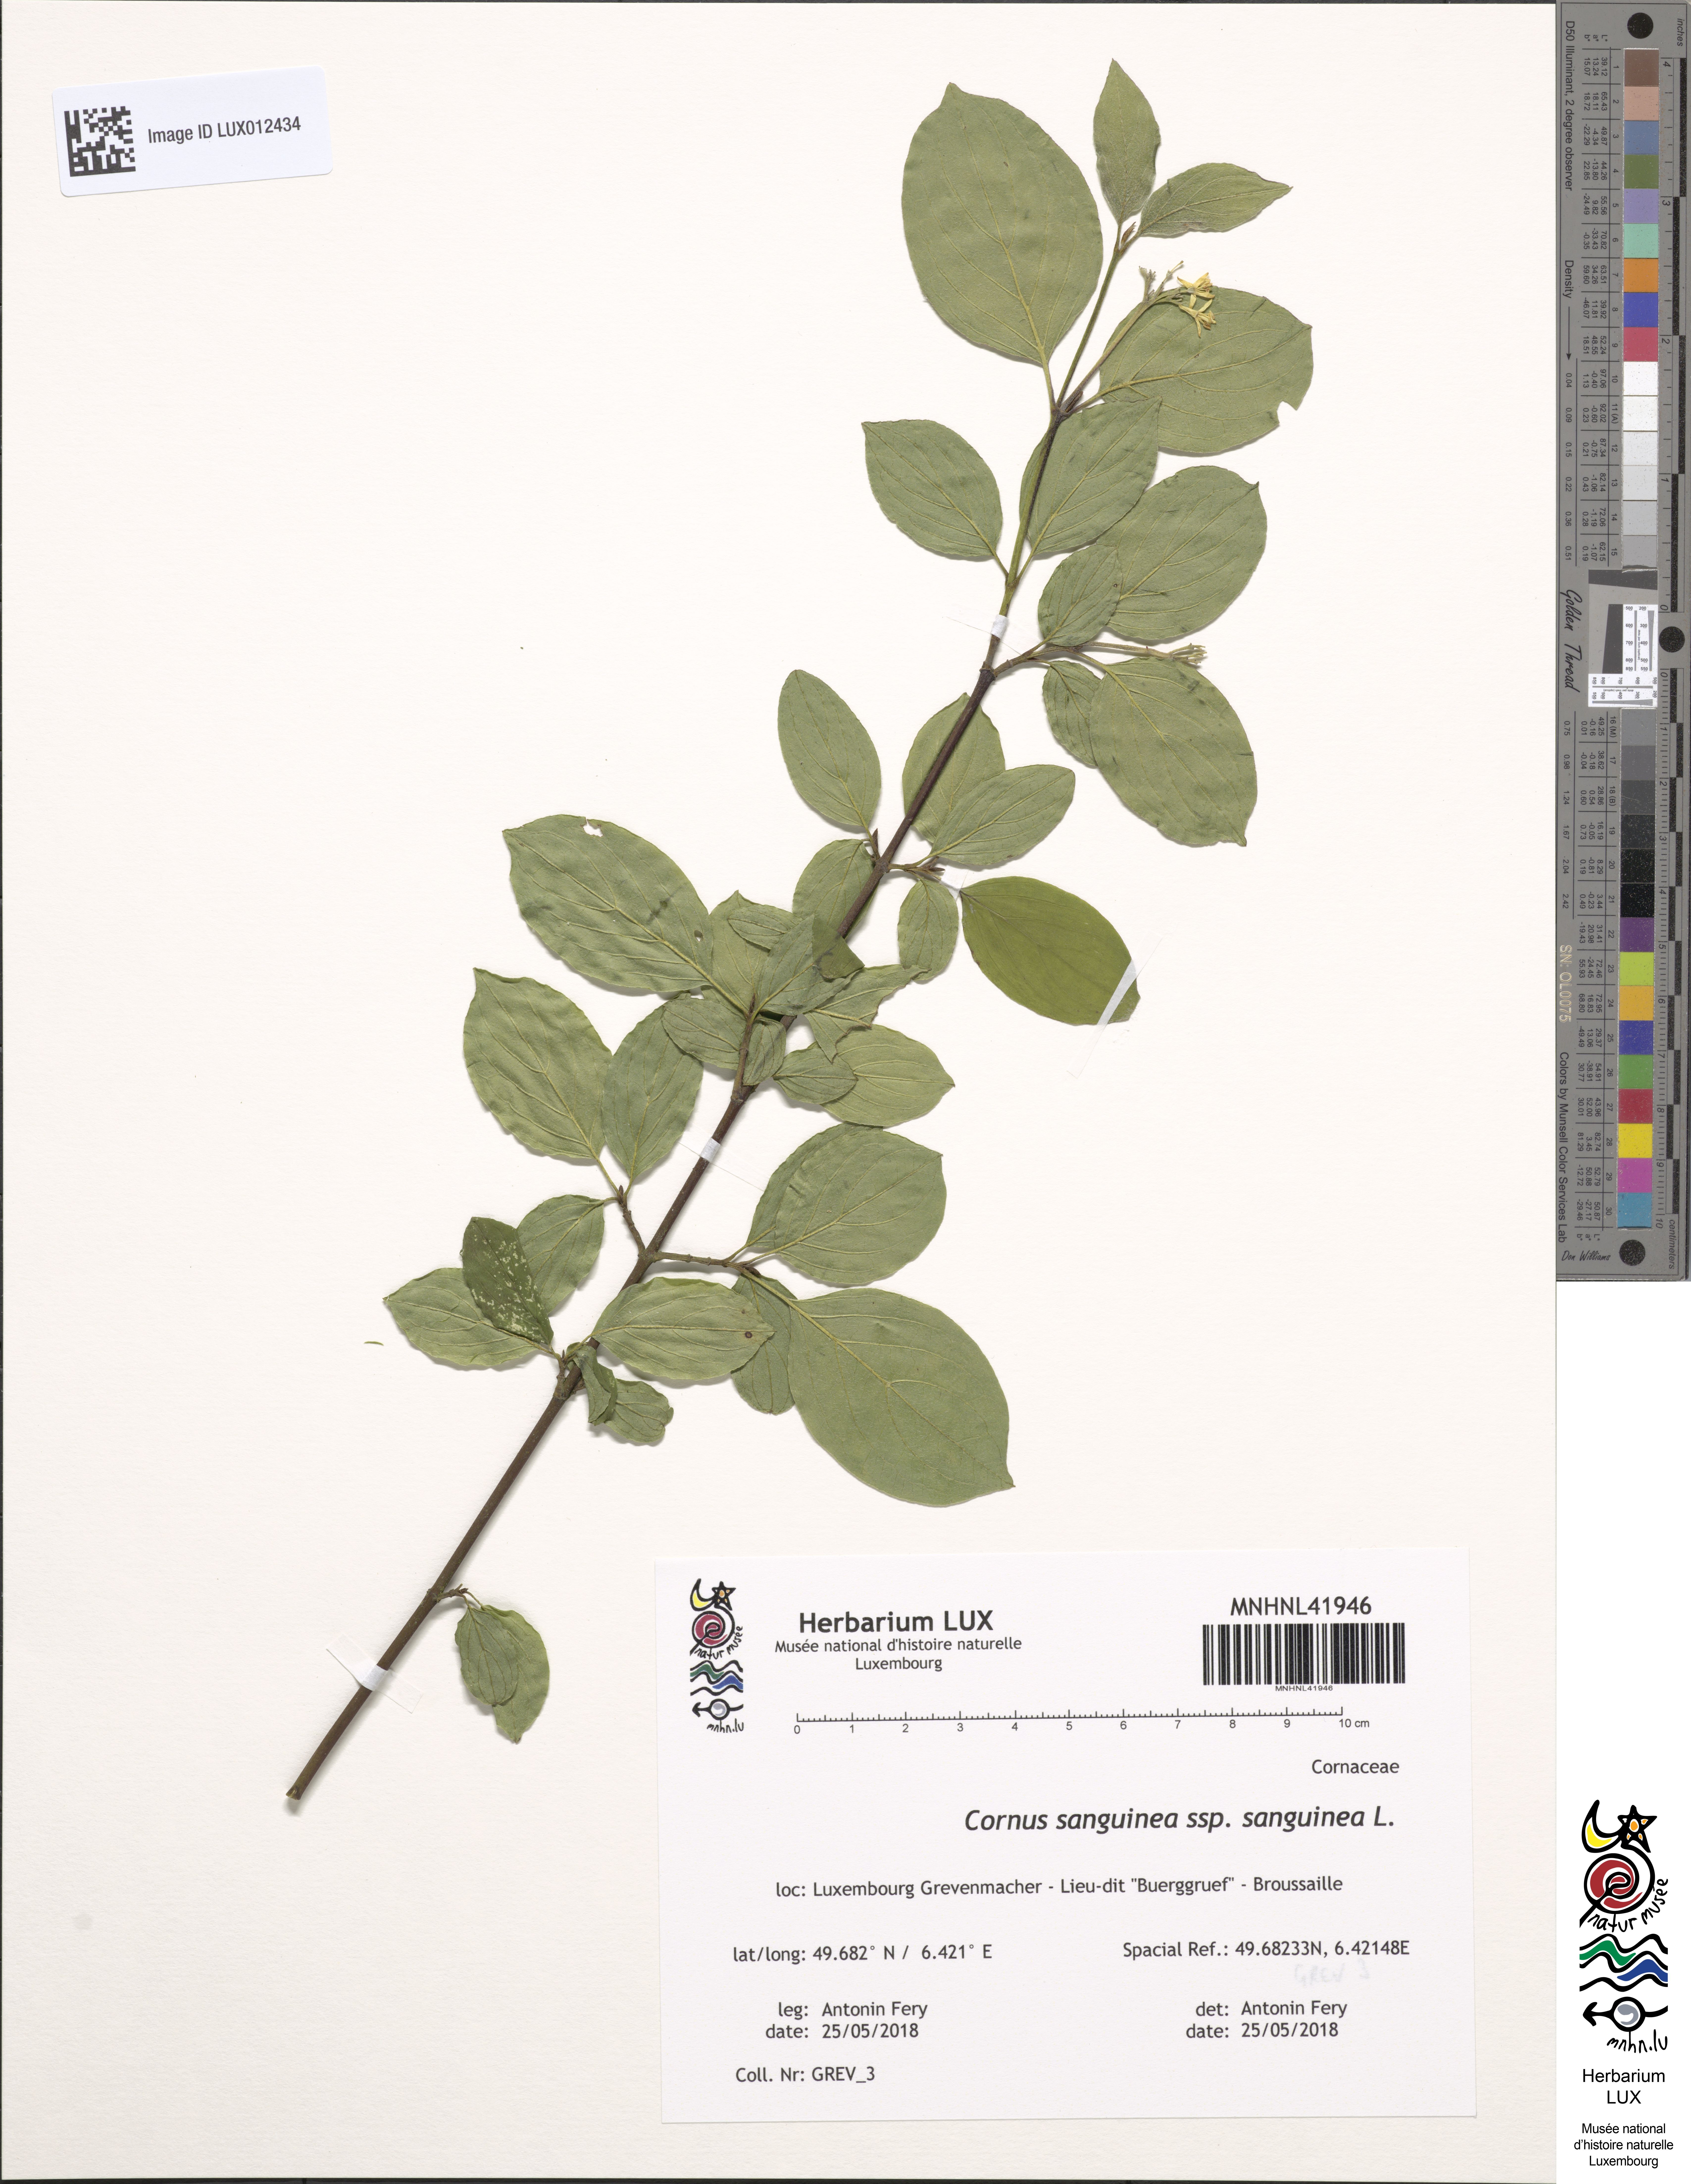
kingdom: Plantae
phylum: Tracheophyta
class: Magnoliopsida
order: Cornales
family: Cornaceae
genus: Cornus
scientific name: Cornus sanguinea
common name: Dogwood
